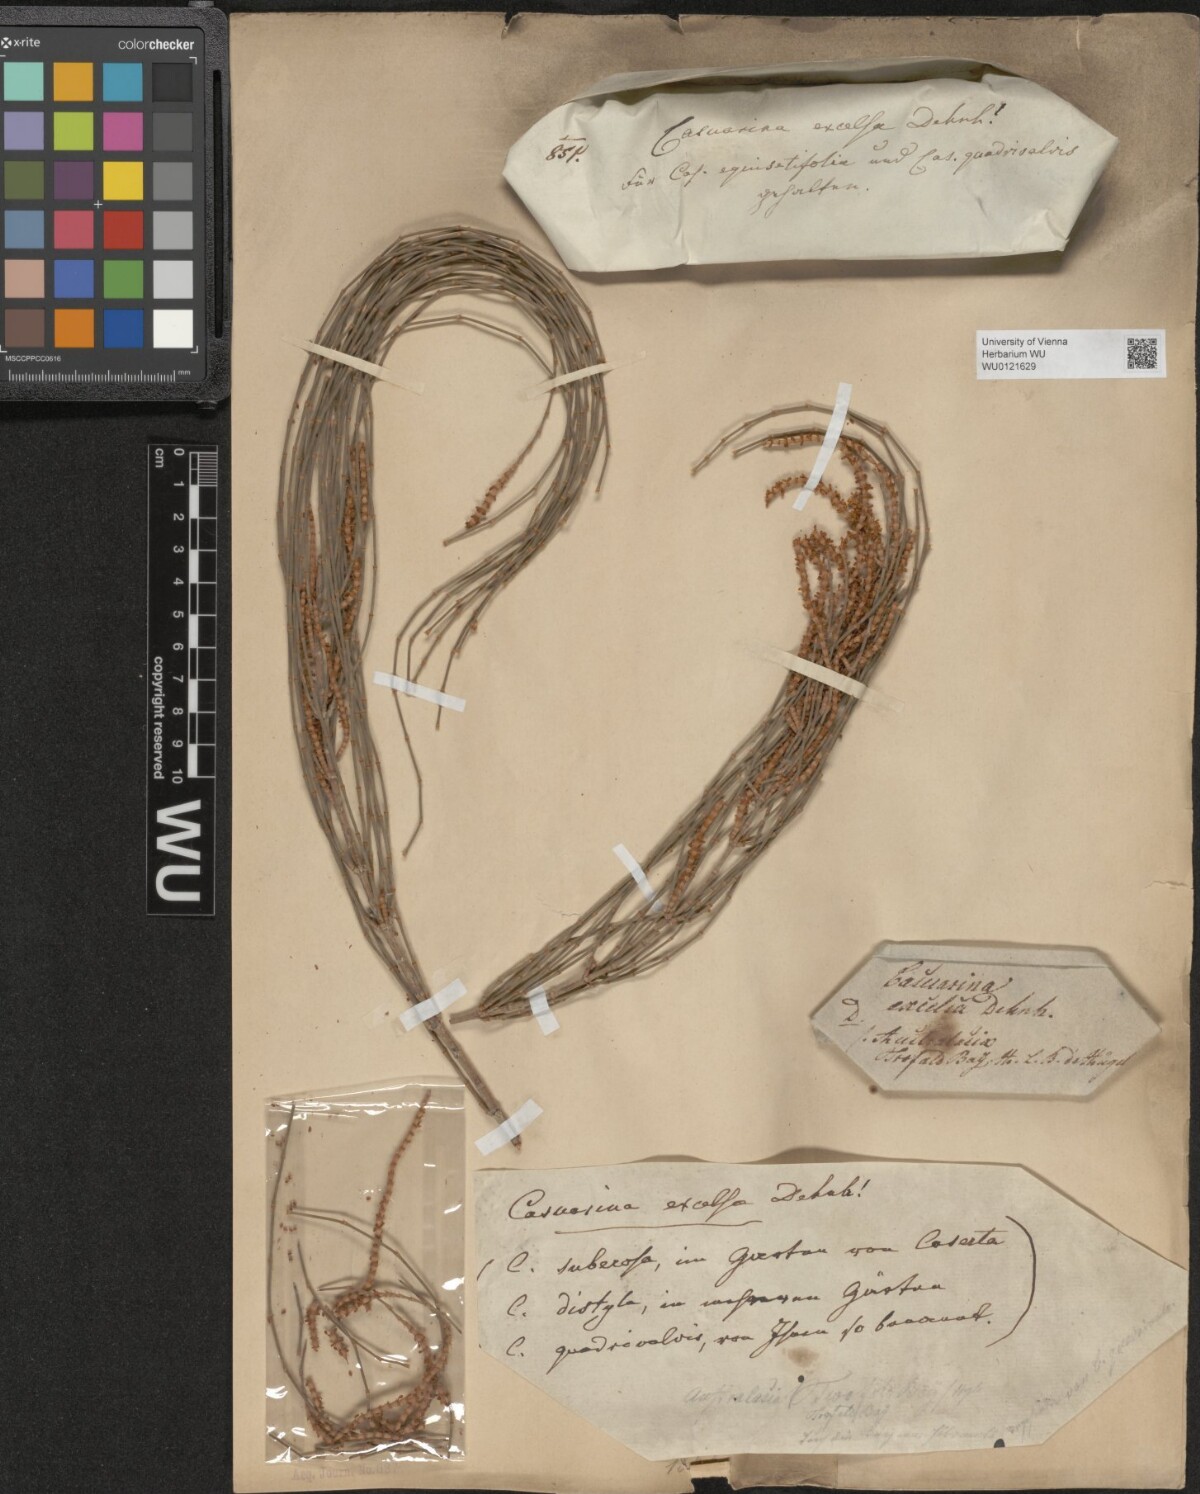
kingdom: Plantae
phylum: Tracheophyta
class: Magnoliopsida
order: Fagales
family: Casuarinaceae
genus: Casuarina
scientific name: Casuarina equisetifolia
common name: Beach sheoak
